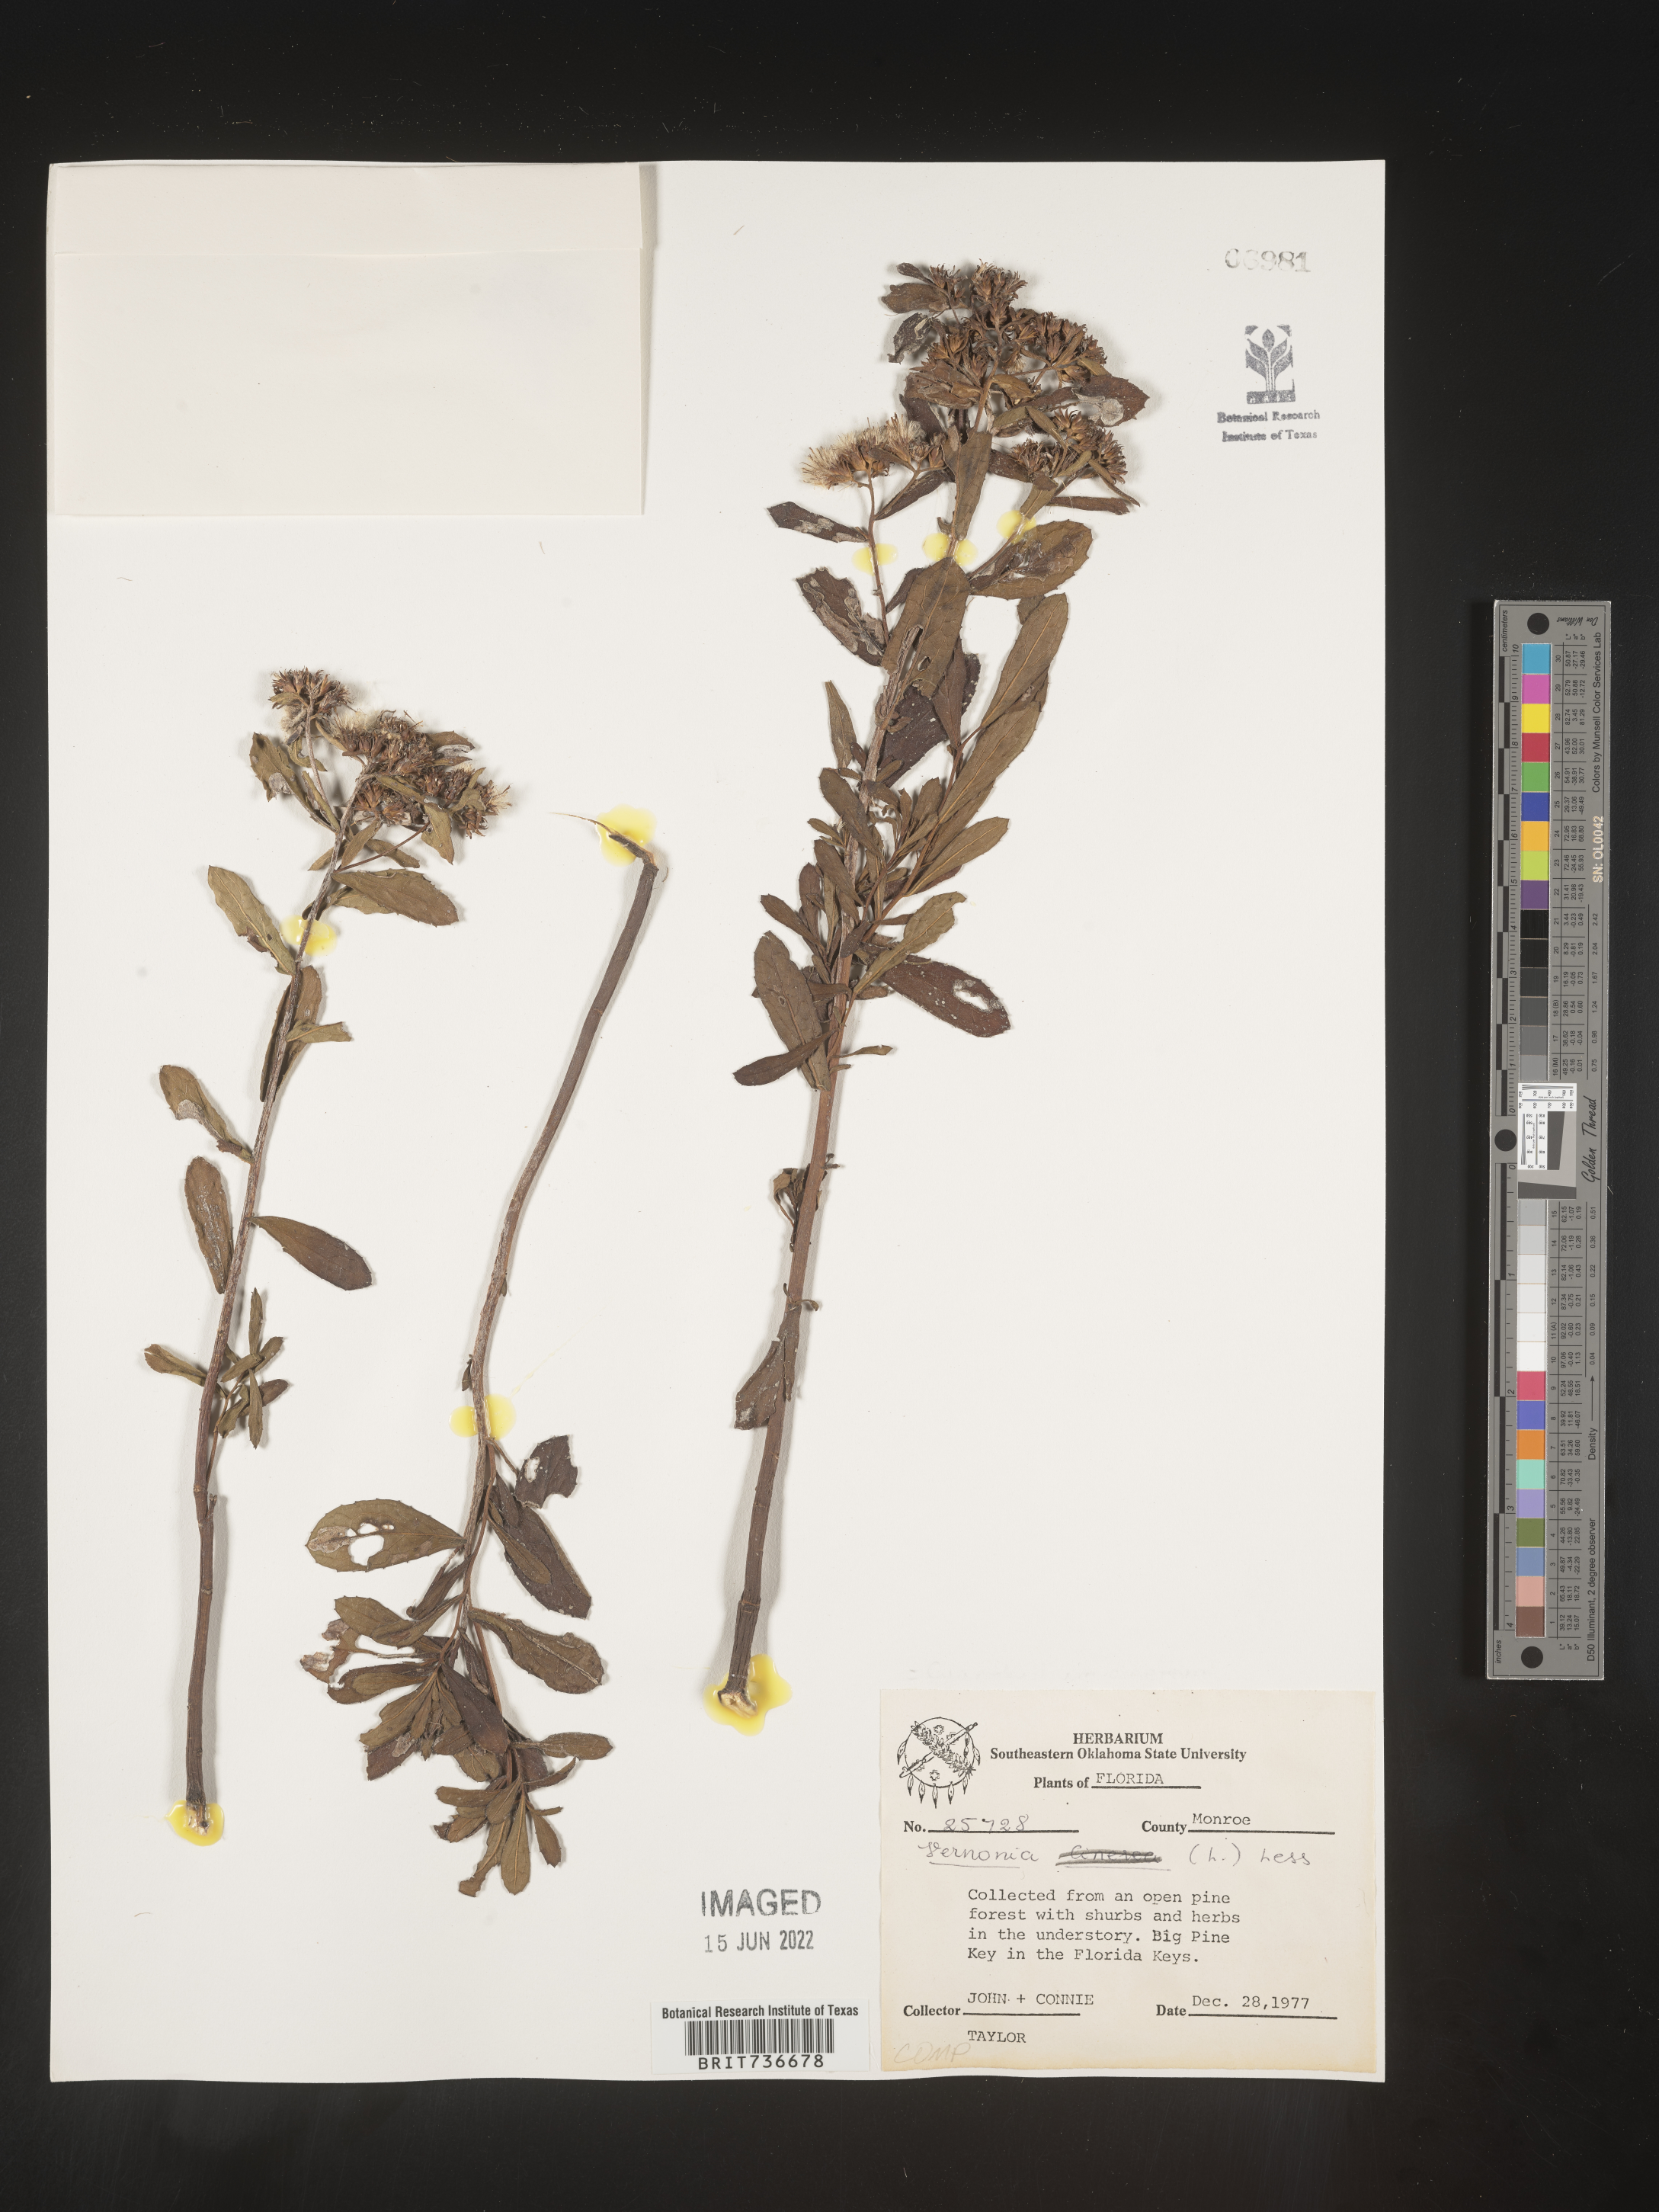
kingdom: Plantae
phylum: Tracheophyta
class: Magnoliopsida
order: Asterales
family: Asteraceae
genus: Pluchea
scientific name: Pluchea foetida
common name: Stinking camphorweed
